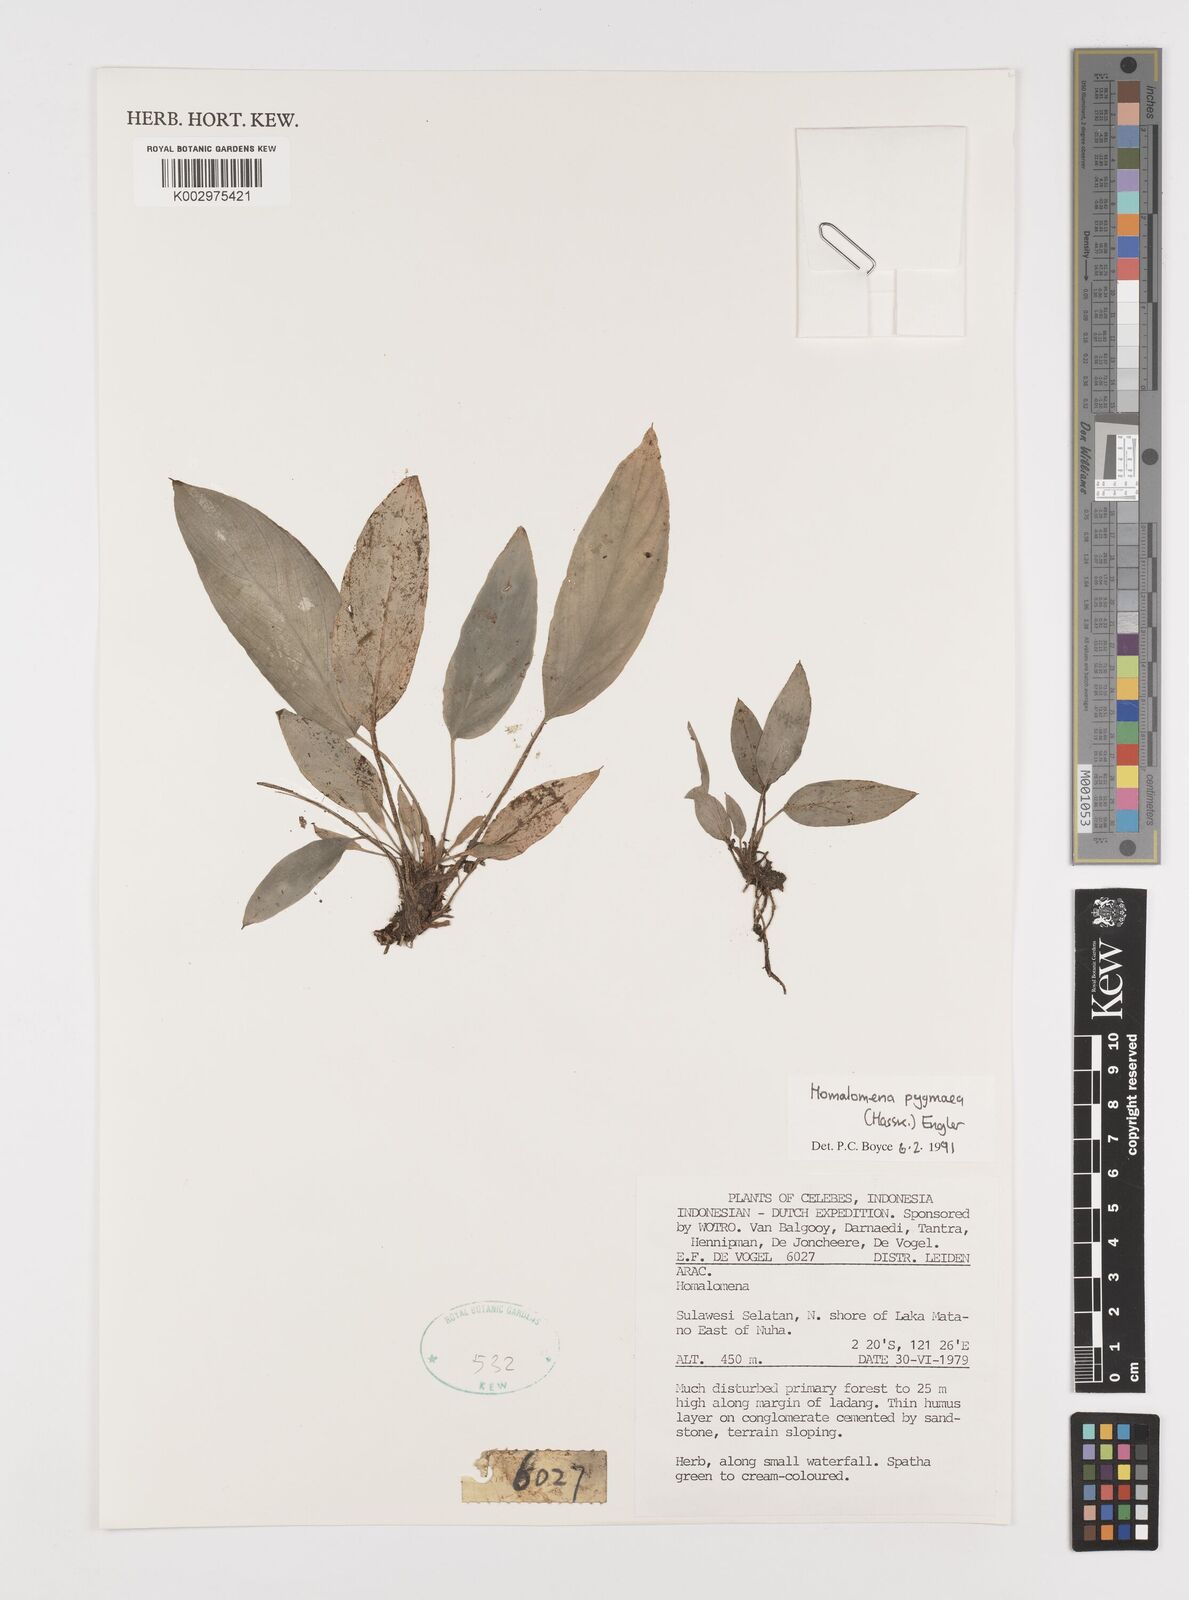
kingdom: Plantae
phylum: Tracheophyta
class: Liliopsida
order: Alismatales
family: Araceae
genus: Homalomena
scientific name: Homalomena humilis
